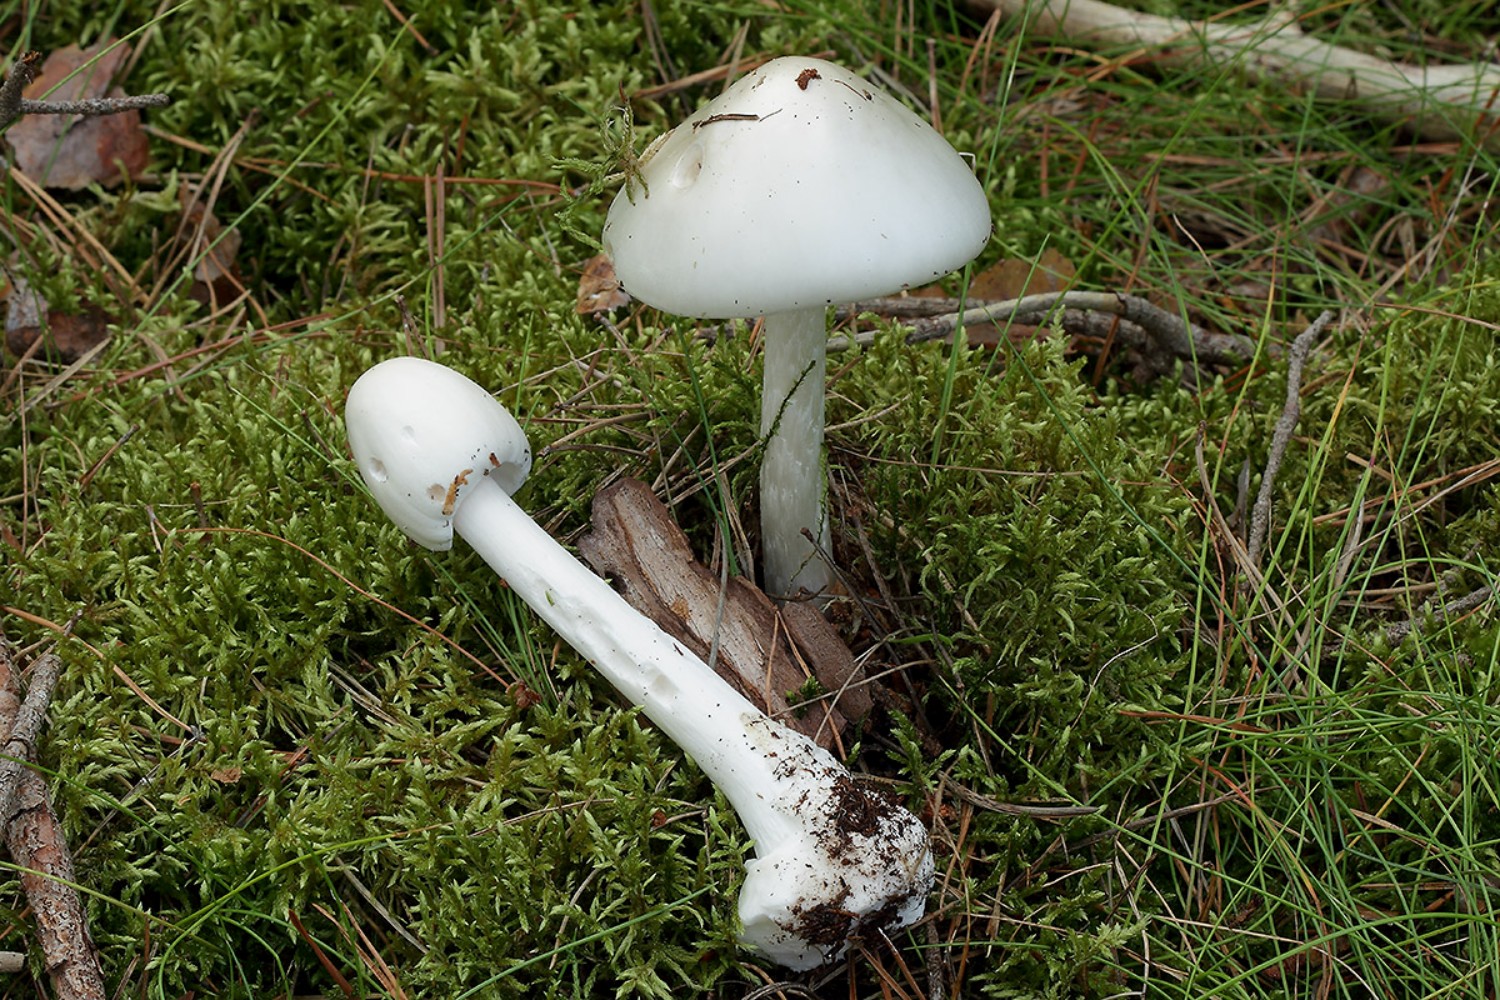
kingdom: Fungi
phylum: Basidiomycota
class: Agaricomycetes
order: Agaricales
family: Amanitaceae
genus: Amanita
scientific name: Amanita virosa
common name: snehvid fluesvamp
